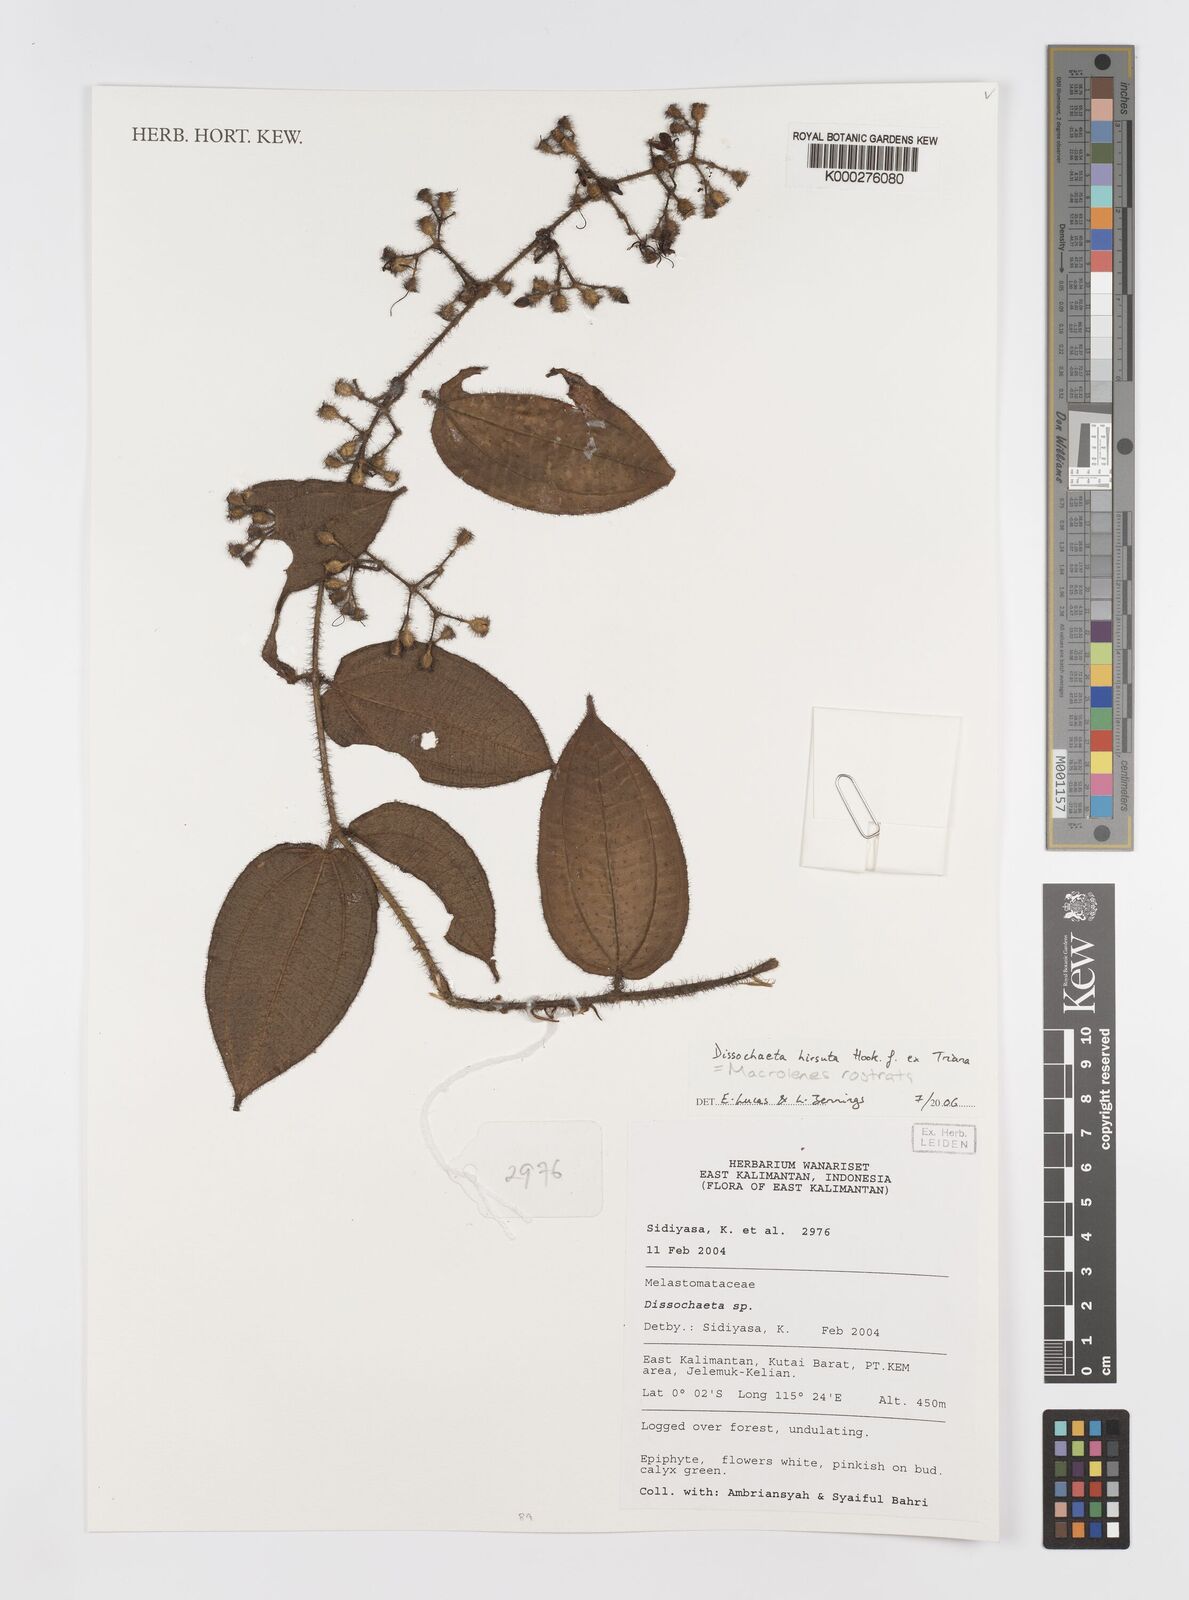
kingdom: Plantae
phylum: Tracheophyta
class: Magnoliopsida
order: Myrtales
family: Melastomataceae
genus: Macrolenes
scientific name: Macrolenes rostrata
